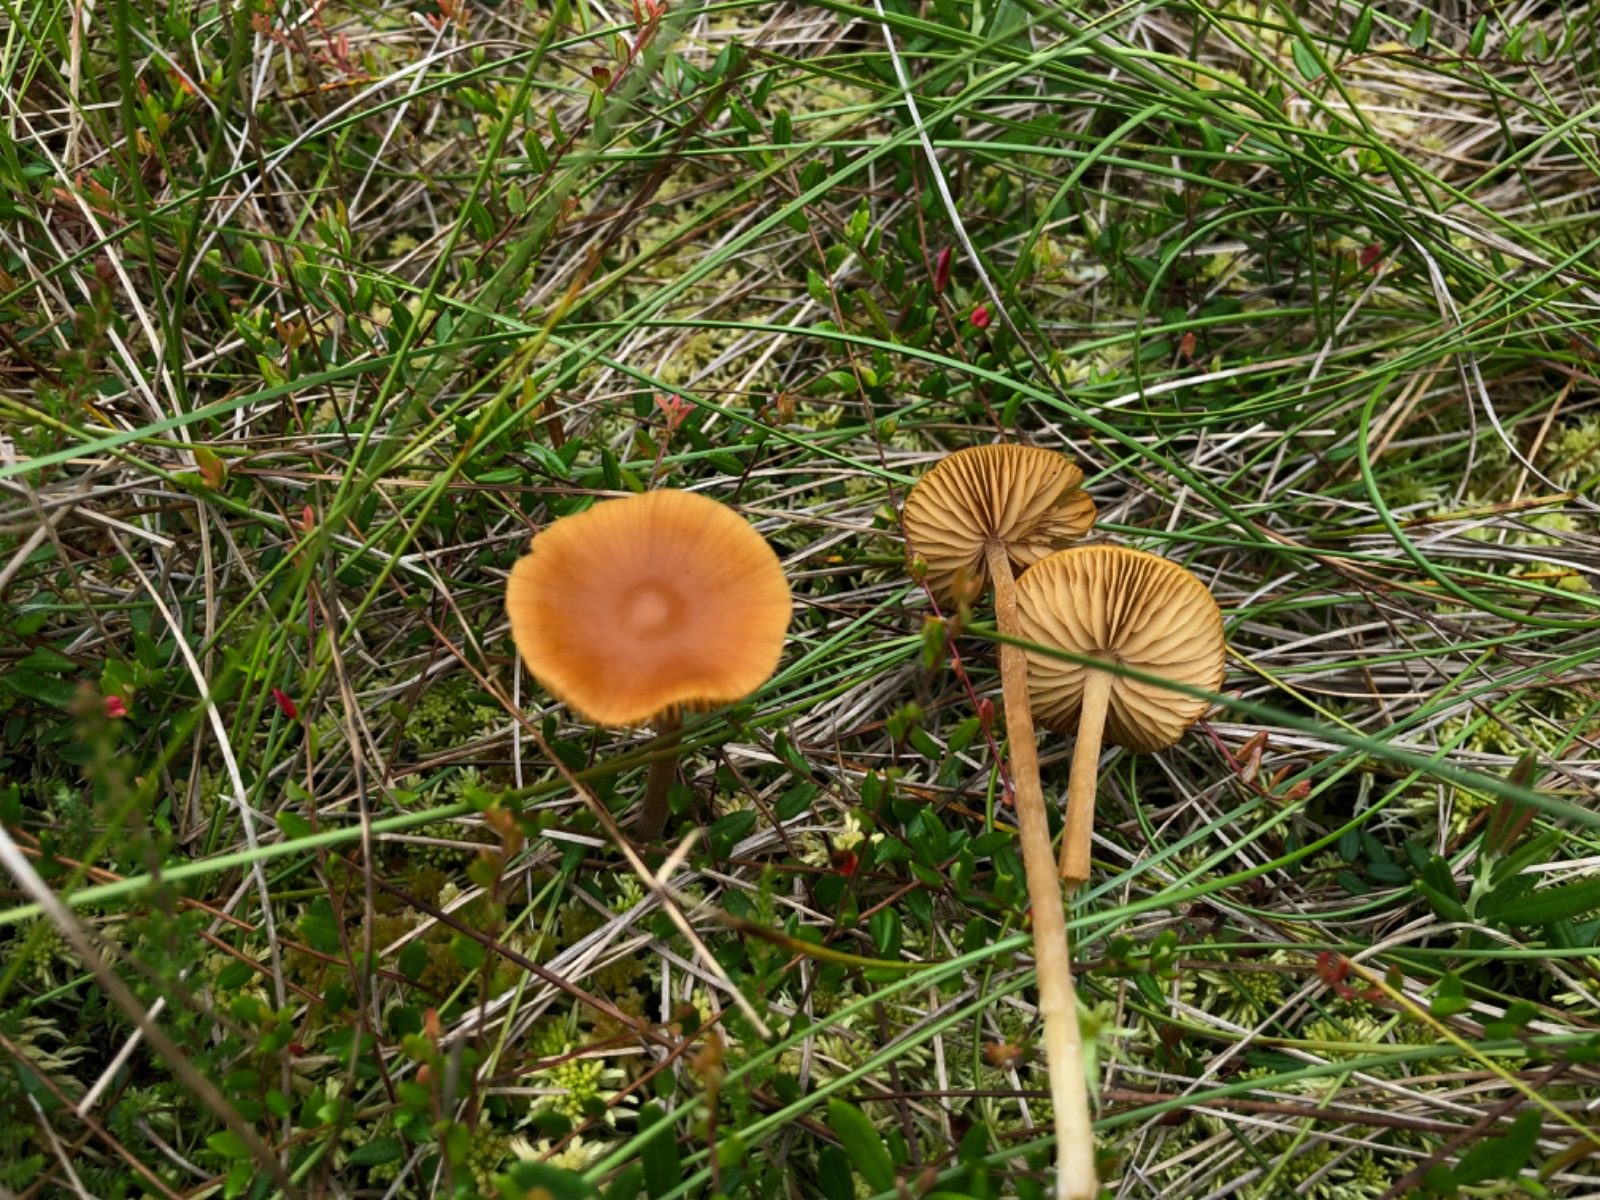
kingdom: Fungi
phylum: Basidiomycota
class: Agaricomycetes
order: Agaricales
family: Hymenogastraceae
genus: Galerina
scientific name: Galerina hybrida
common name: hængesæk-hjelmhat
